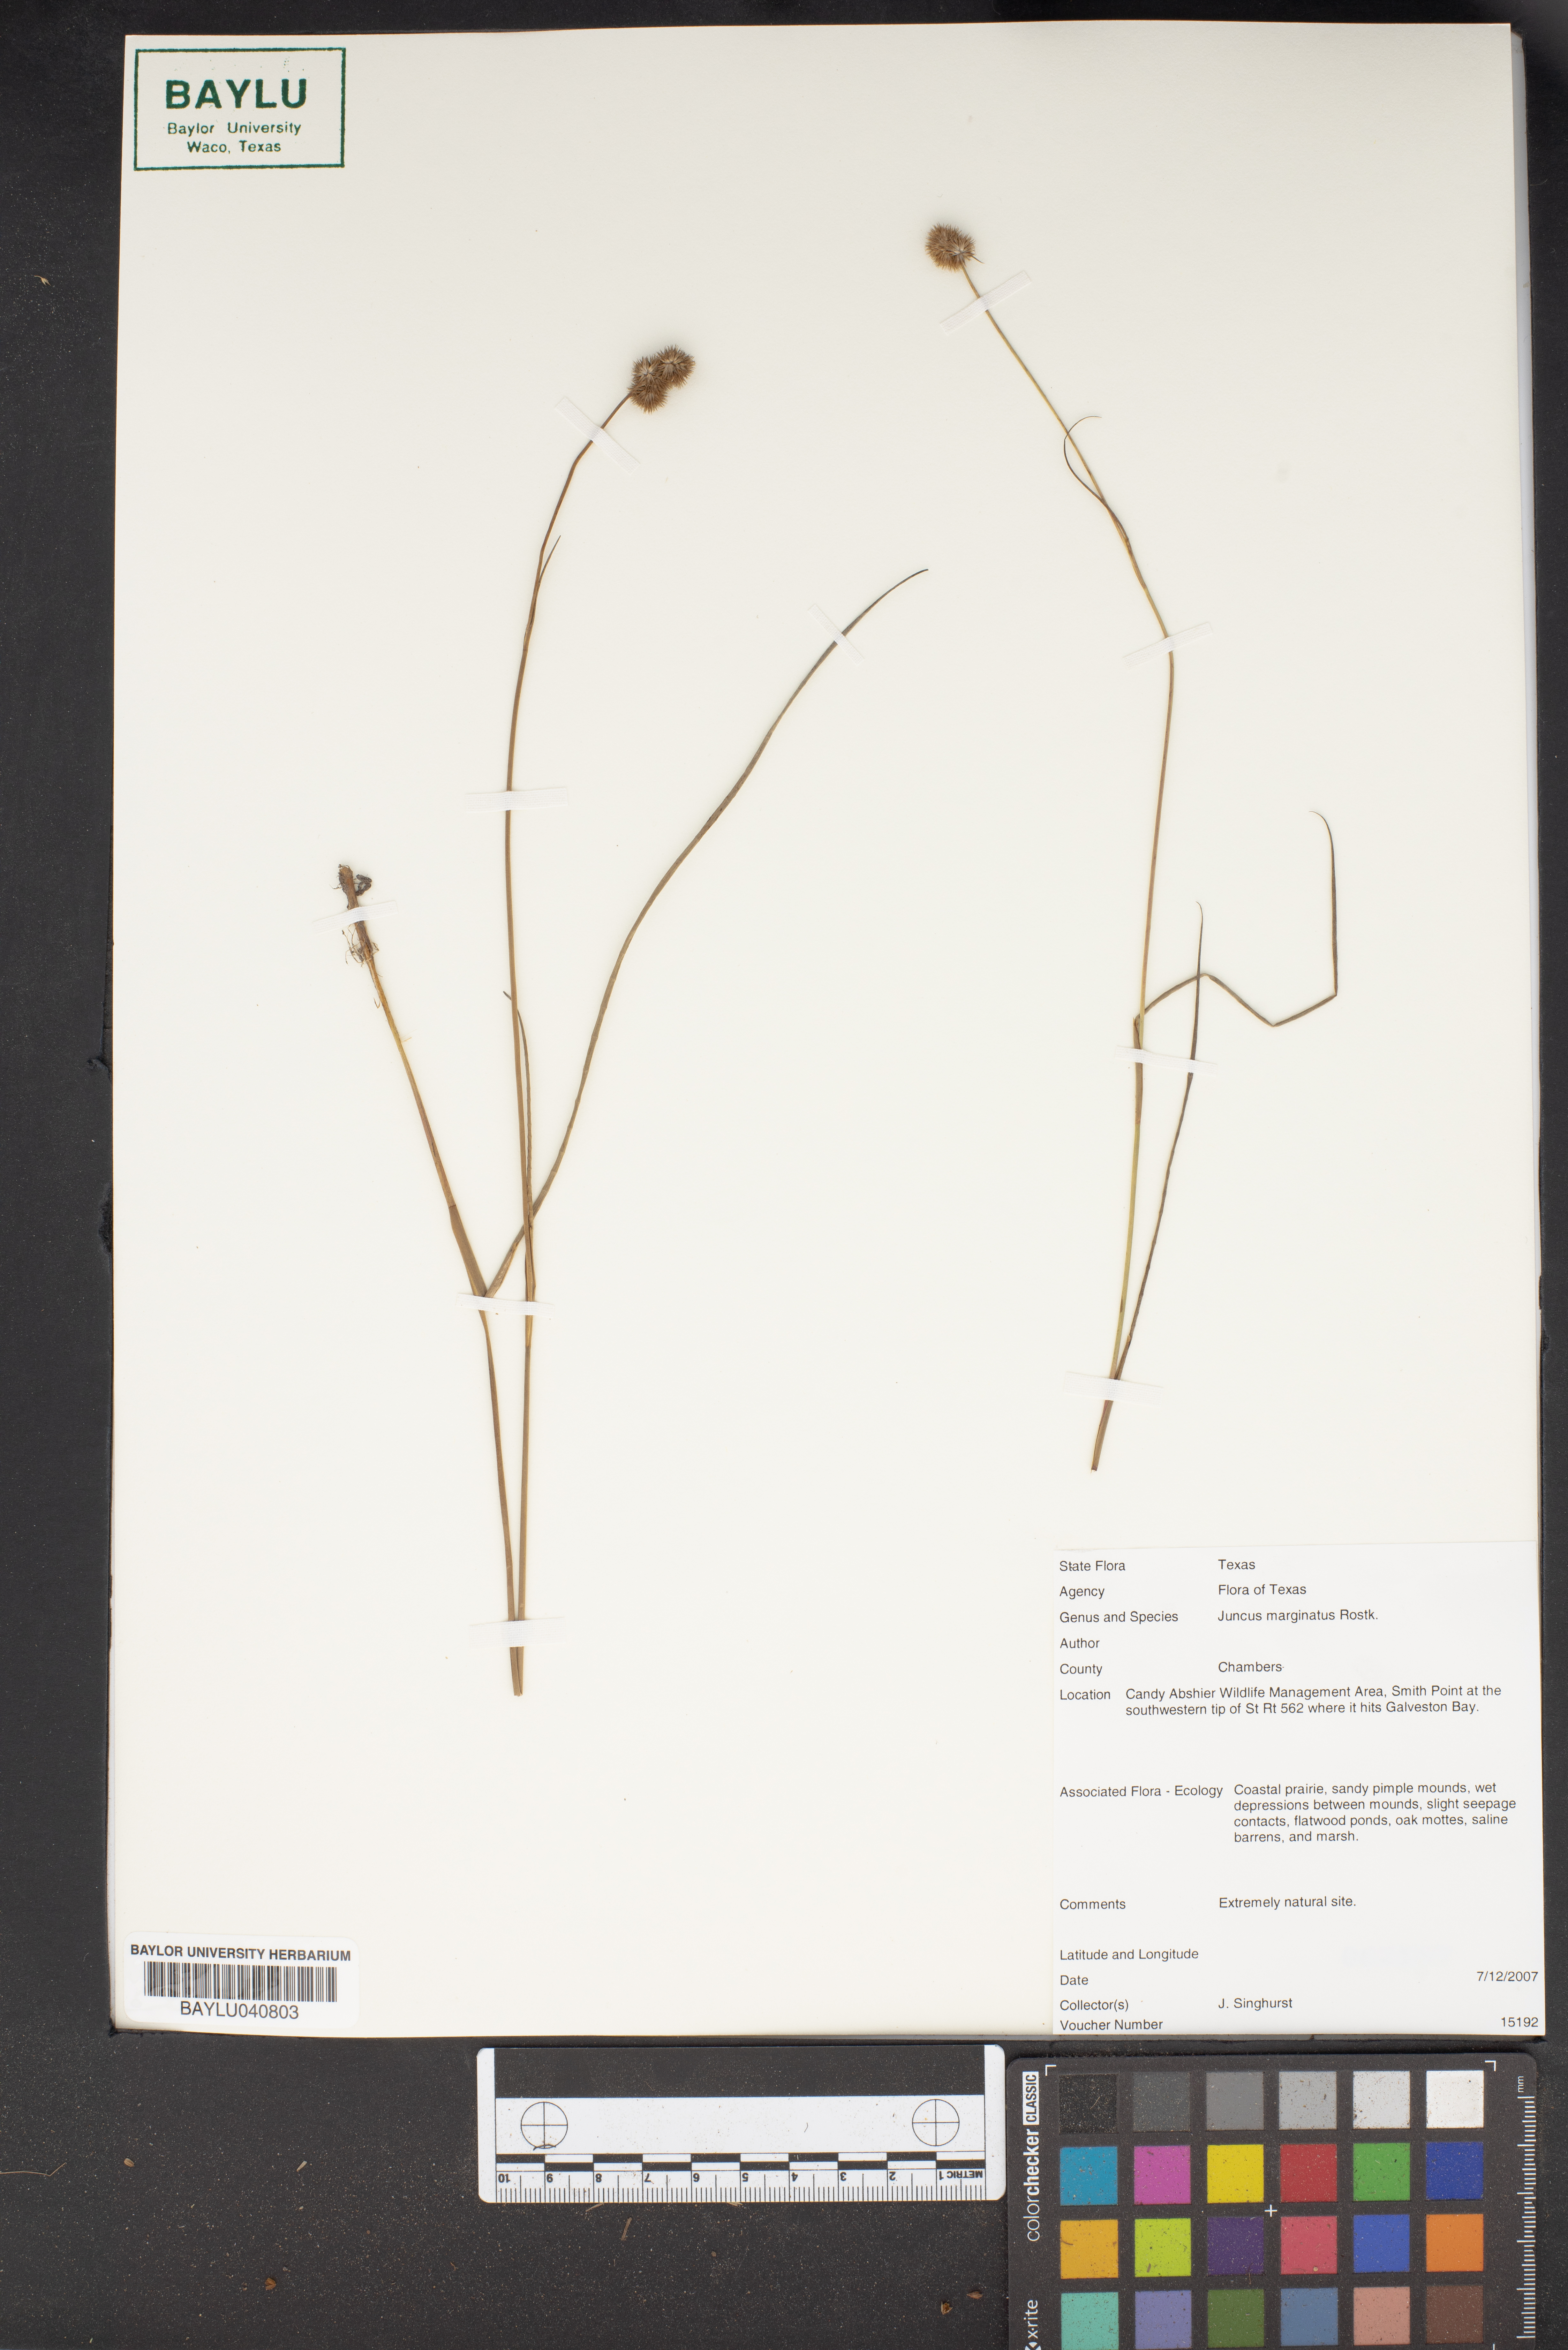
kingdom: Plantae
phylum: Tracheophyta
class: Liliopsida
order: Poales
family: Juncaceae
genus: Juncus
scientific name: Juncus marginatus
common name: Grass-leaf rush
